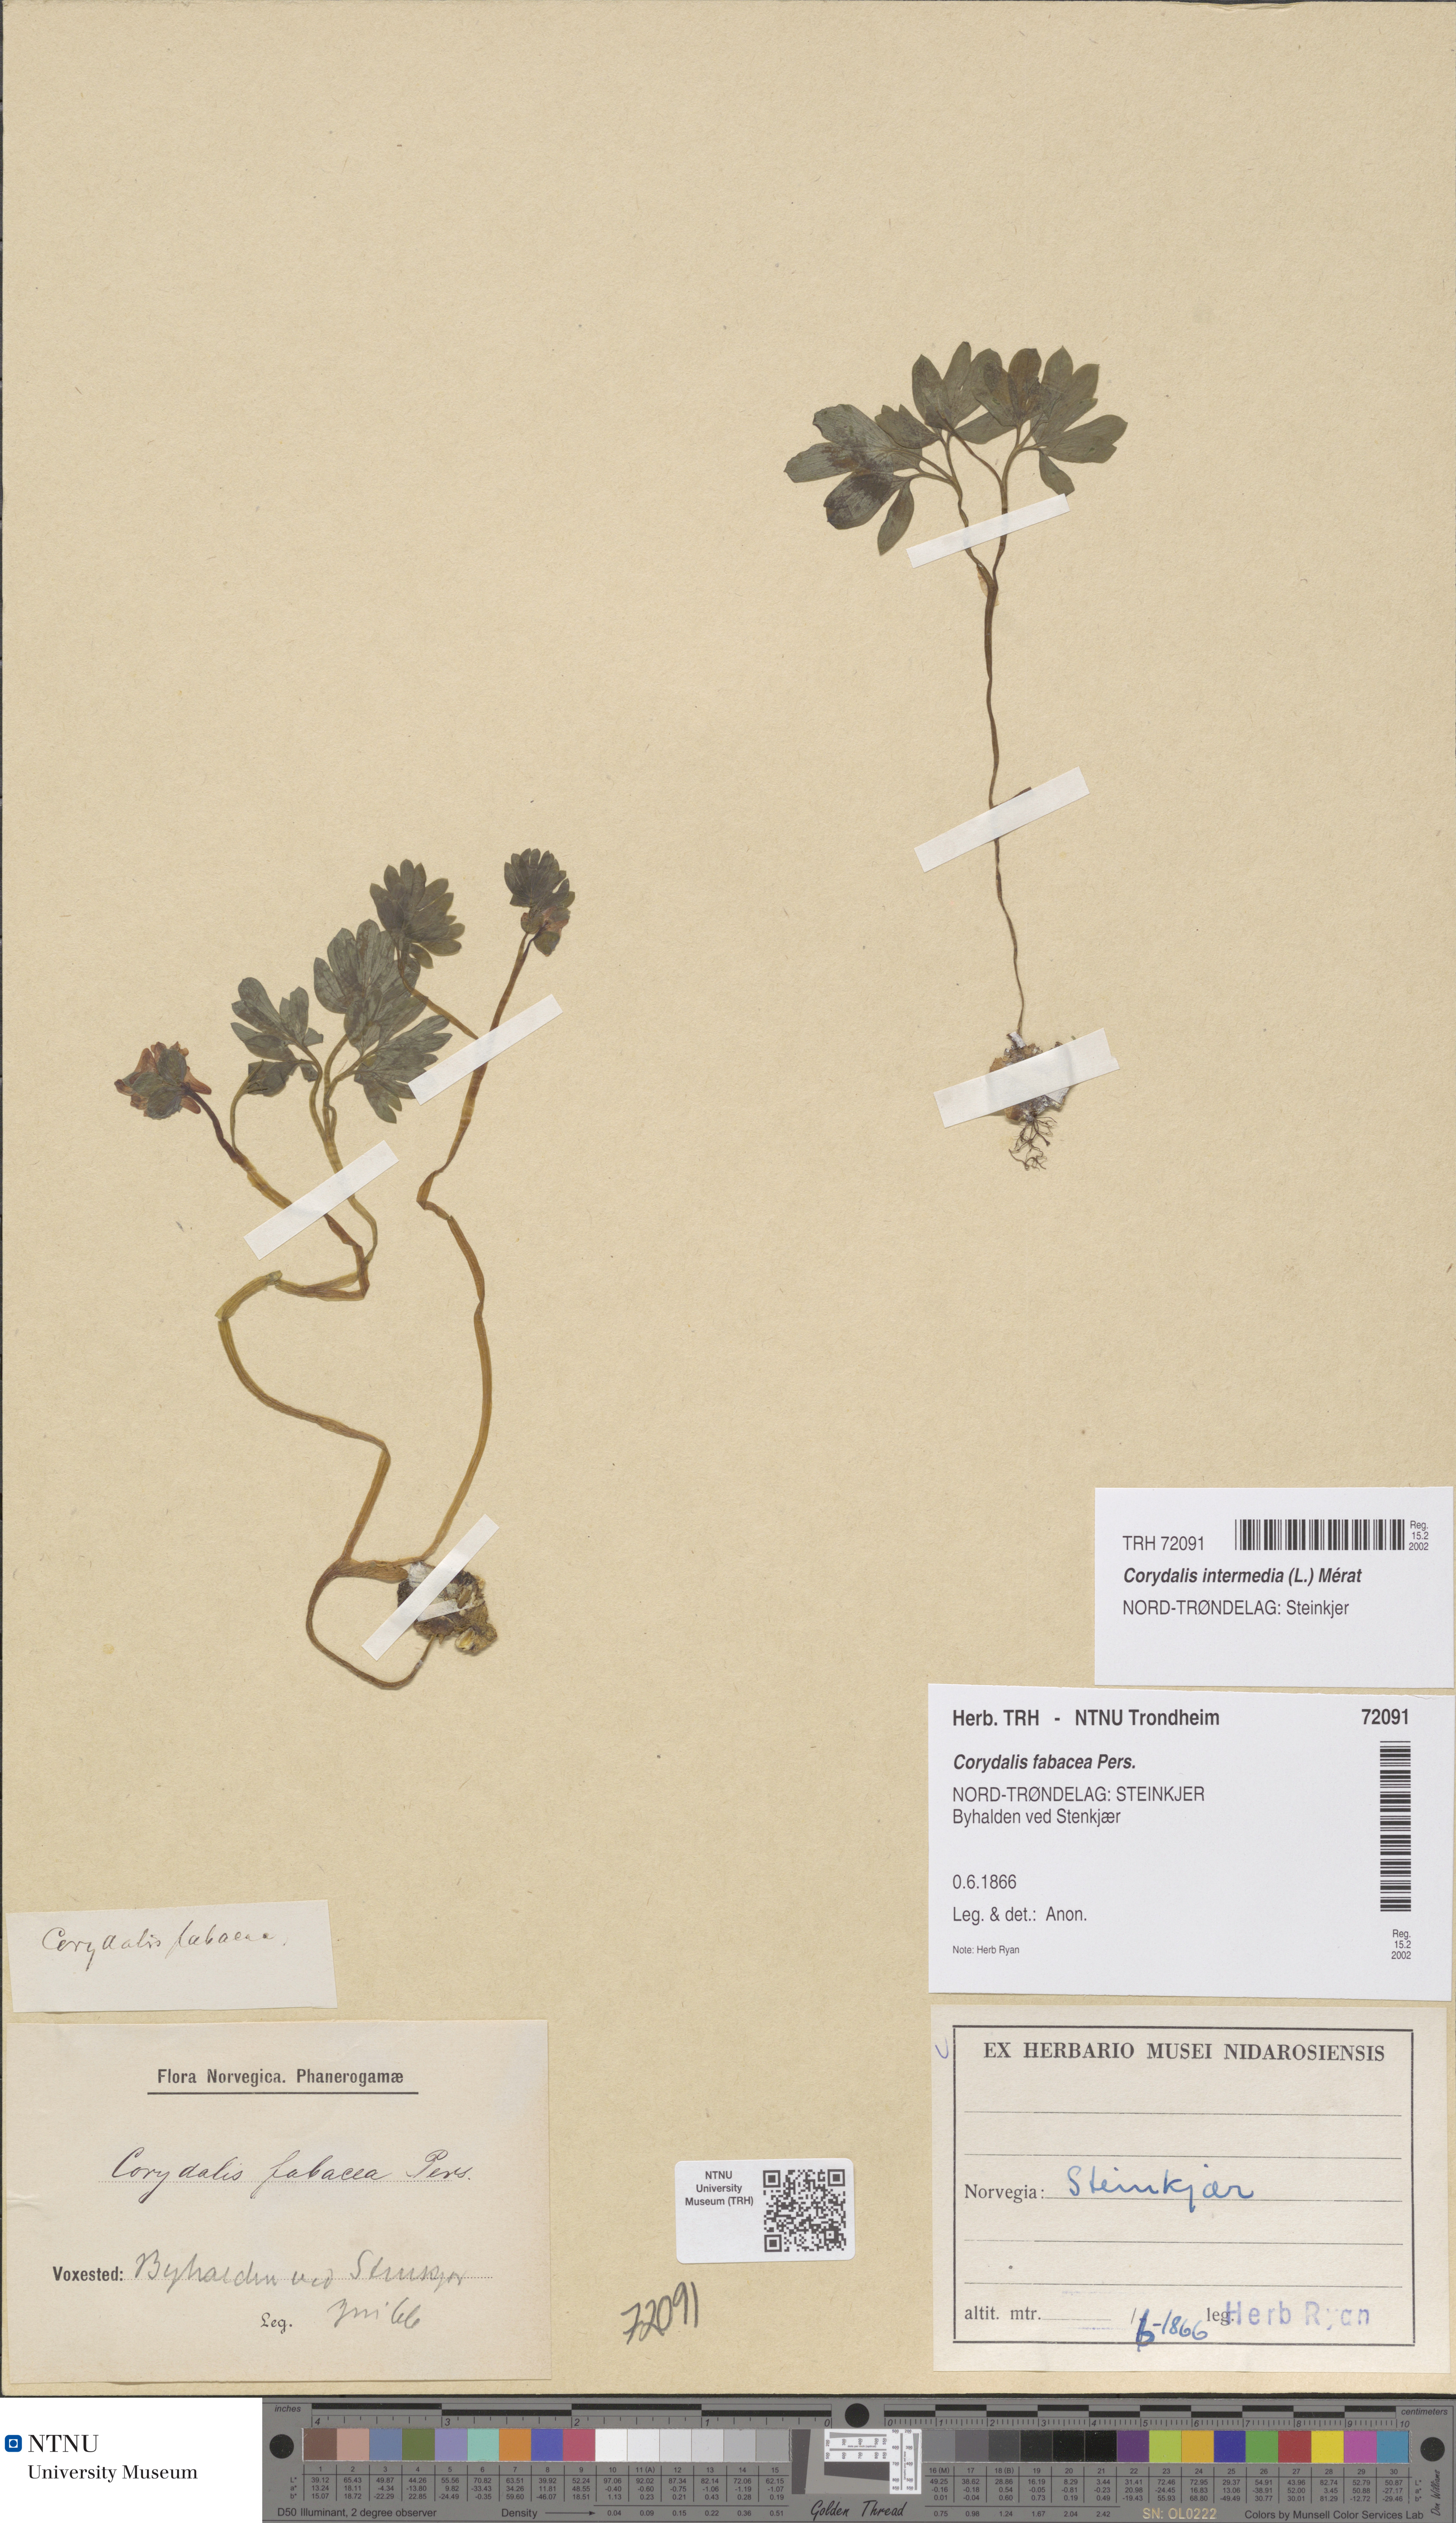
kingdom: Plantae
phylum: Tracheophyta
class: Magnoliopsida
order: Ranunculales
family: Papaveraceae
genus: Corydalis
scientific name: Corydalis intermedia
